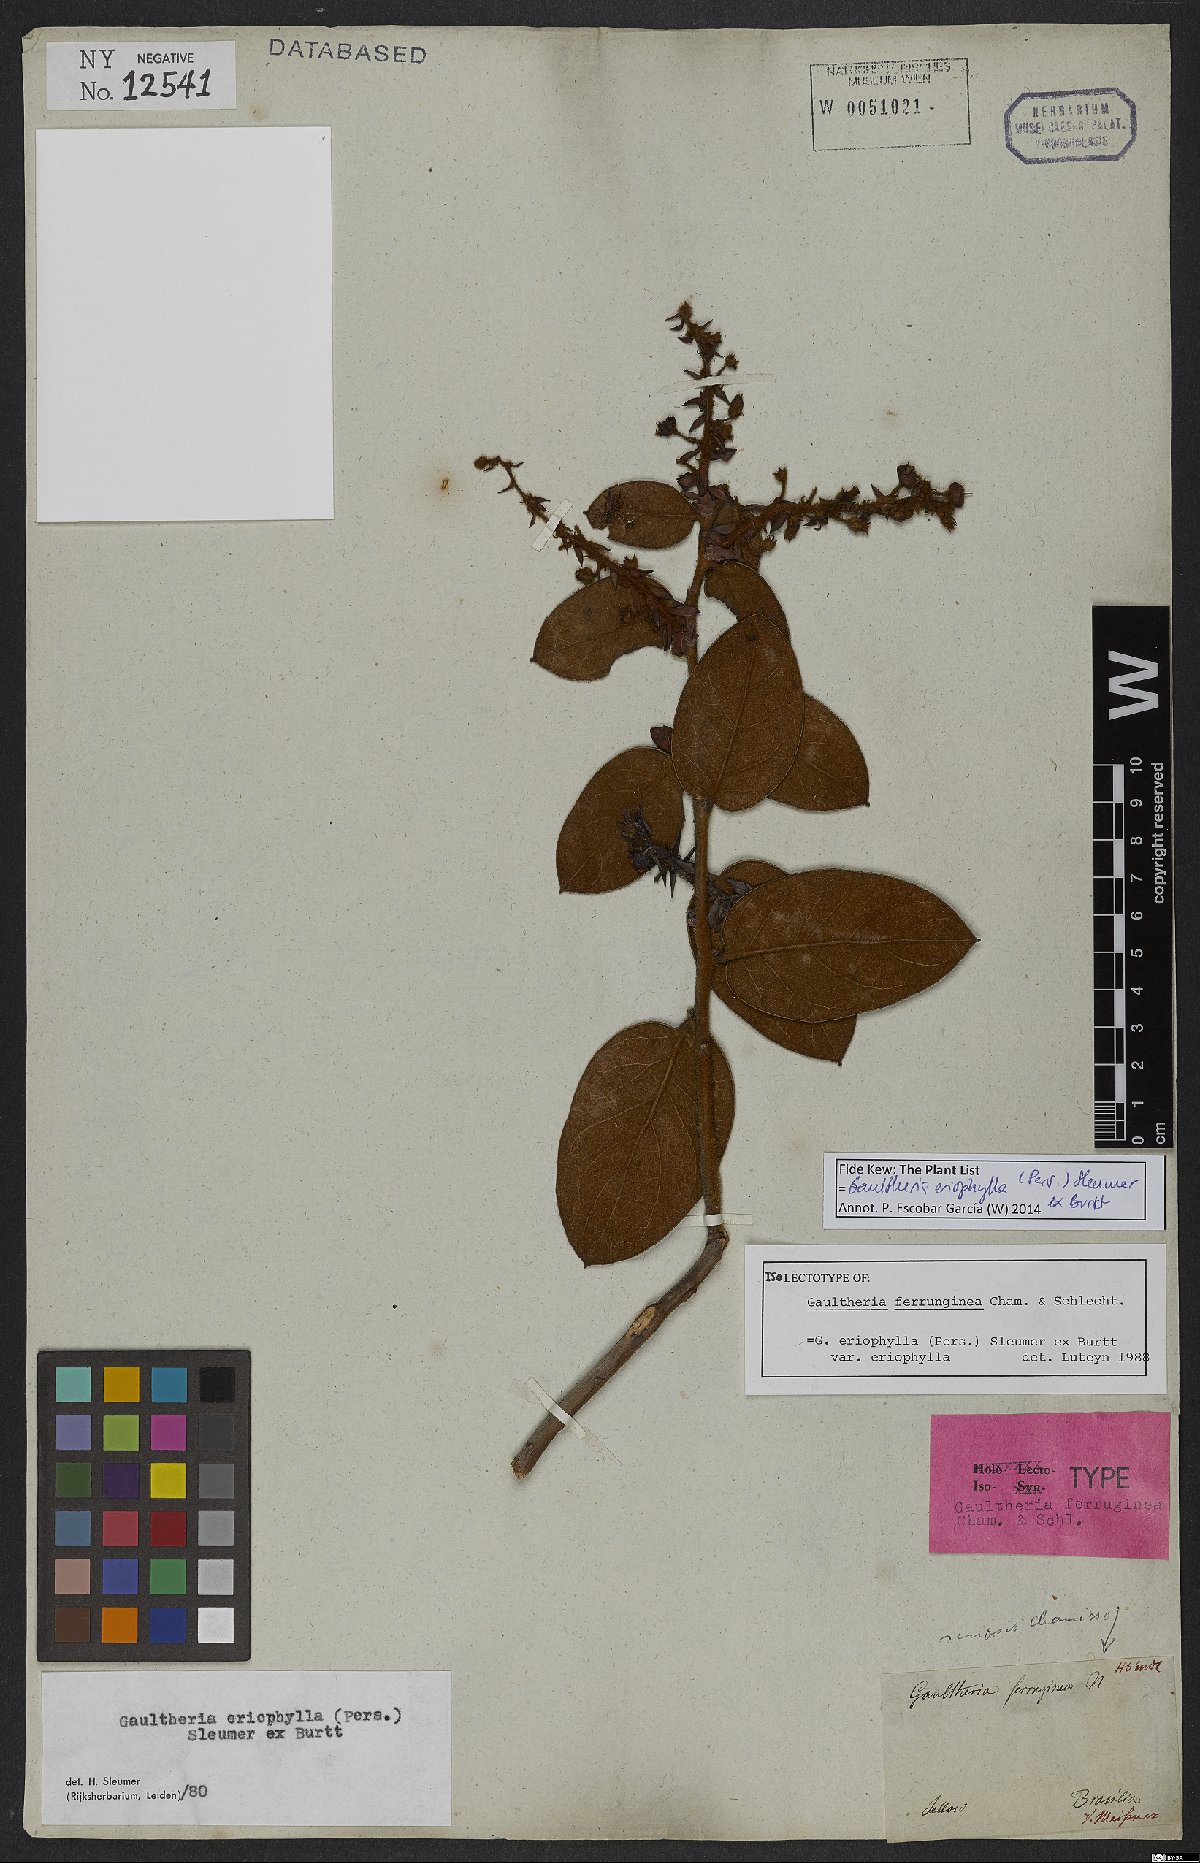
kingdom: Plantae
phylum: Tracheophyta
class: Magnoliopsida
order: Ericales
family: Ericaceae
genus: Gaultheria
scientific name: Gaultheria eriophylla
